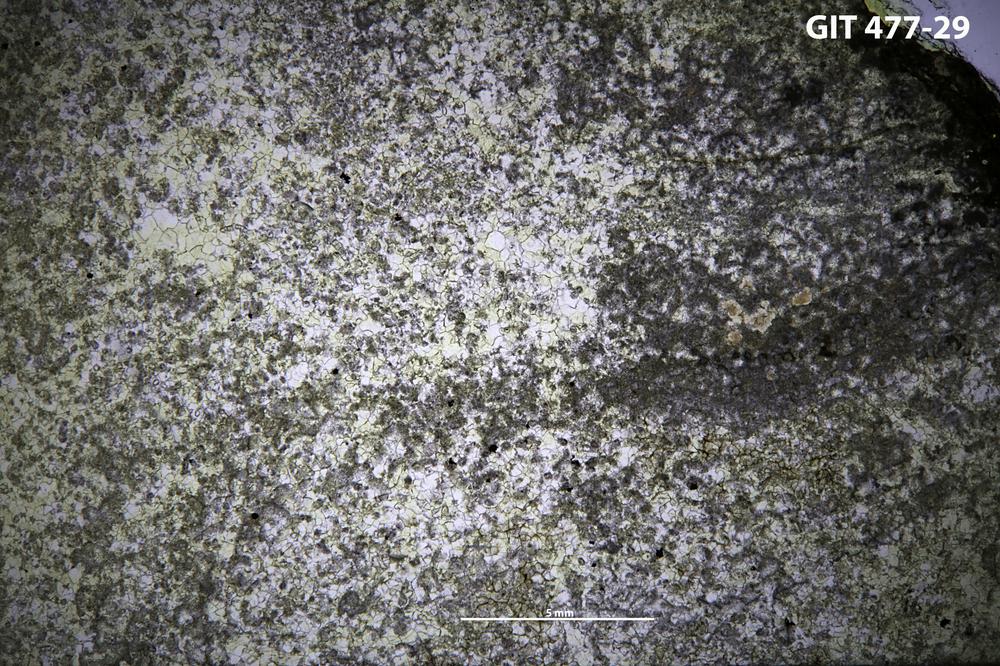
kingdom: Animalia
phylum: Porifera
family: Labechiidae
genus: Labechia
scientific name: Labechia huronensis
